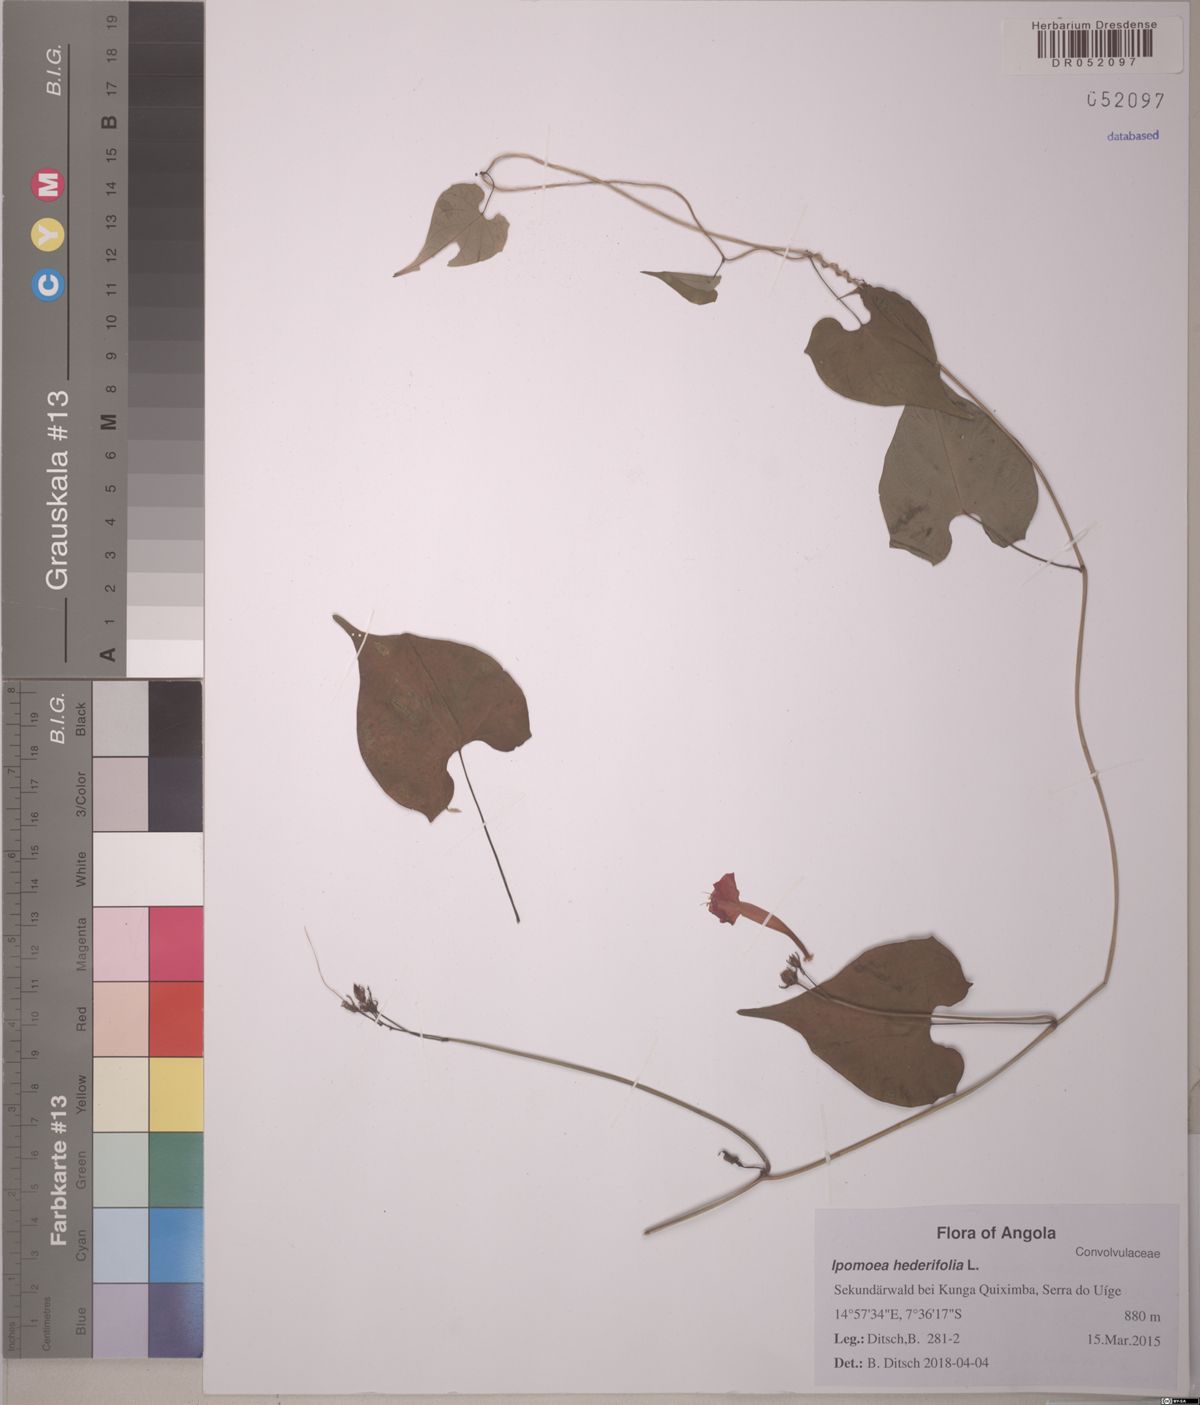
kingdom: Plantae
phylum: Tracheophyta
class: Magnoliopsida
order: Solanales
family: Convolvulaceae
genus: Ipomoea
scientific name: Ipomoea hederifolia
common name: Ivy-leaf morning-glory
